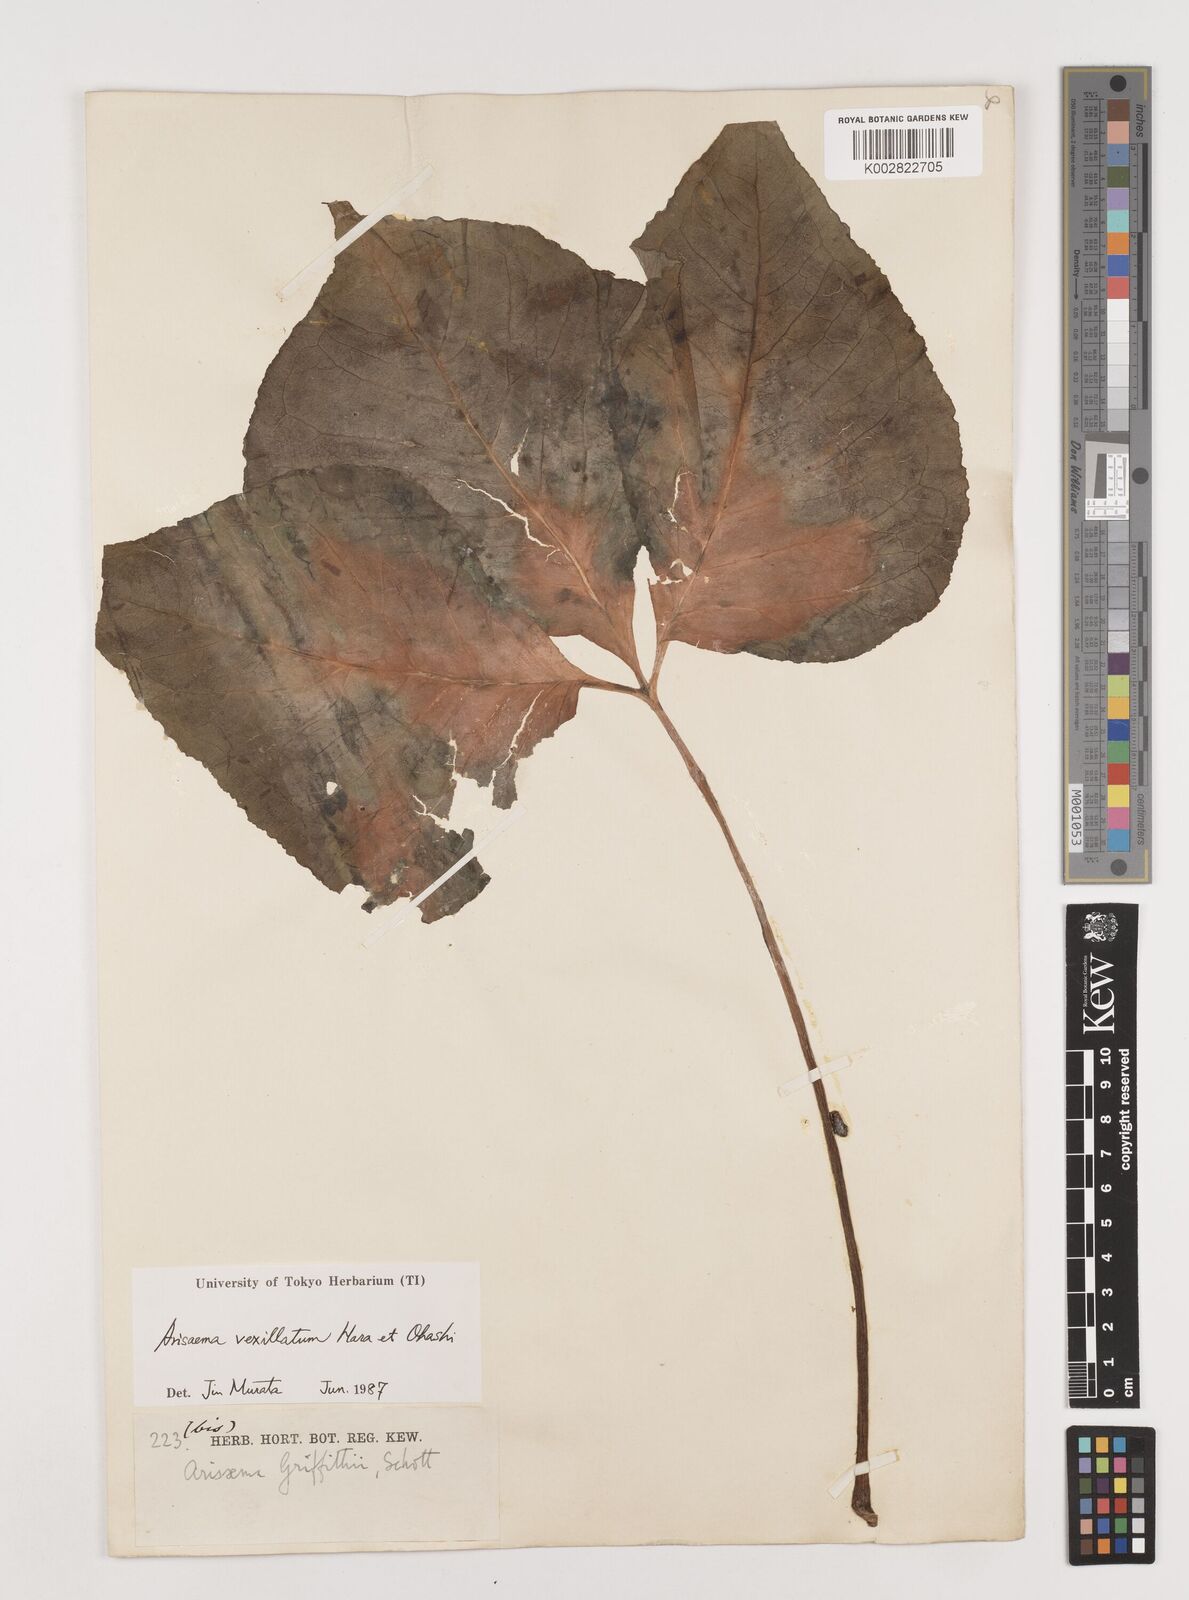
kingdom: Plantae
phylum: Tracheophyta
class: Liliopsida
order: Alismatales
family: Araceae
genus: Arisaema
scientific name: Arisaema vexillatum
